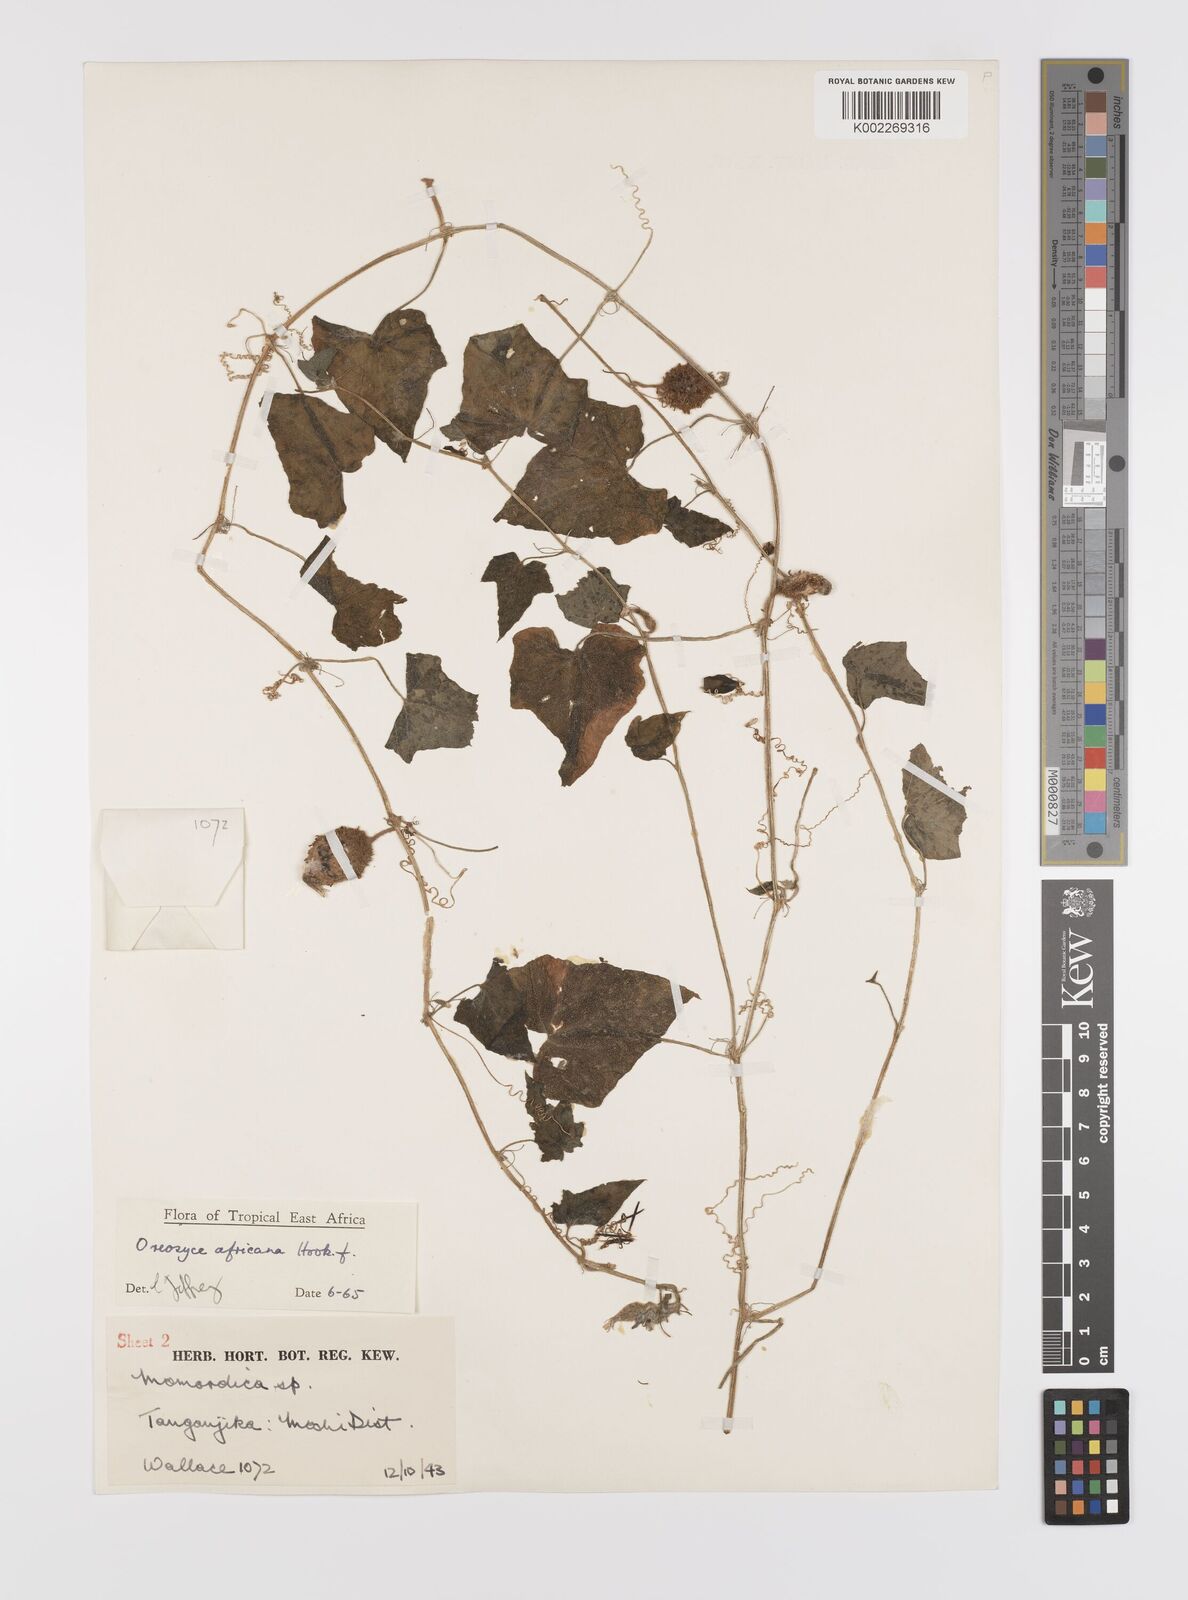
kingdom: Plantae
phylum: Tracheophyta
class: Magnoliopsida
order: Cucurbitales
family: Cucurbitaceae
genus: Cucumis
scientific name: Cucumis oreosyce
